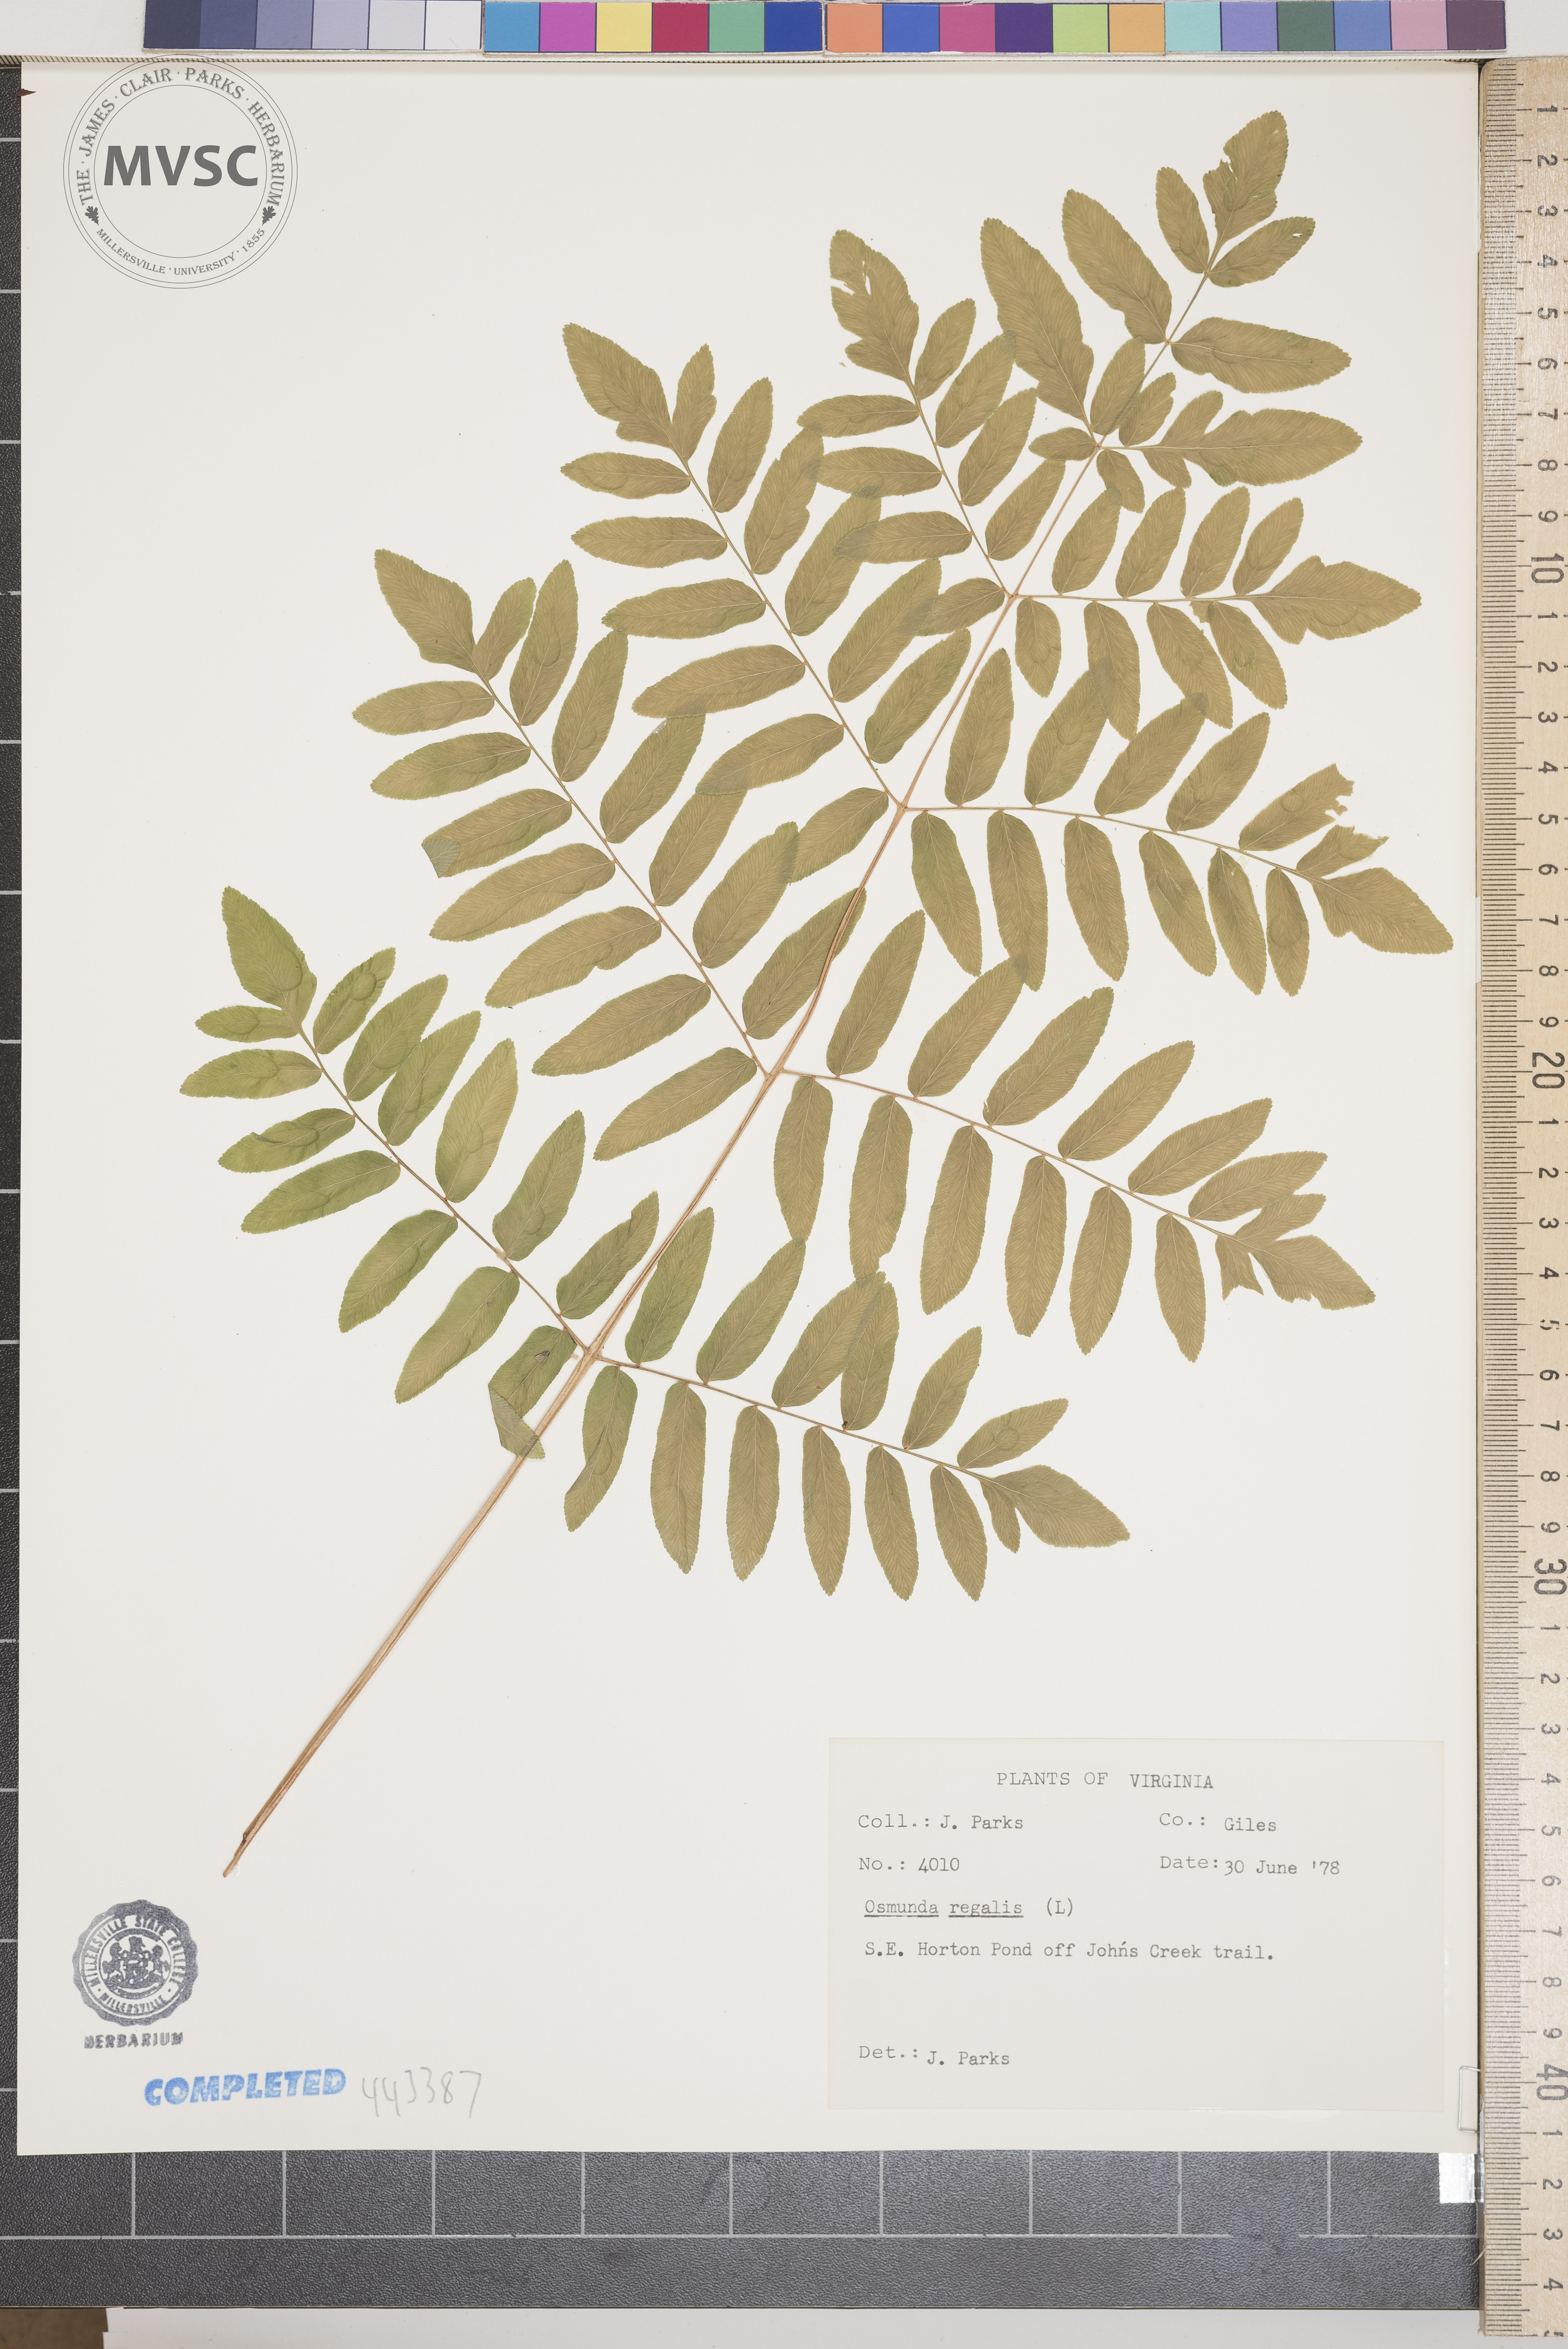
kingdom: Plantae
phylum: Tracheophyta
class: Polypodiopsida
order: Osmundales
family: Osmundaceae
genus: Osmunda
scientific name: Osmunda regalis
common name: Royal fern
